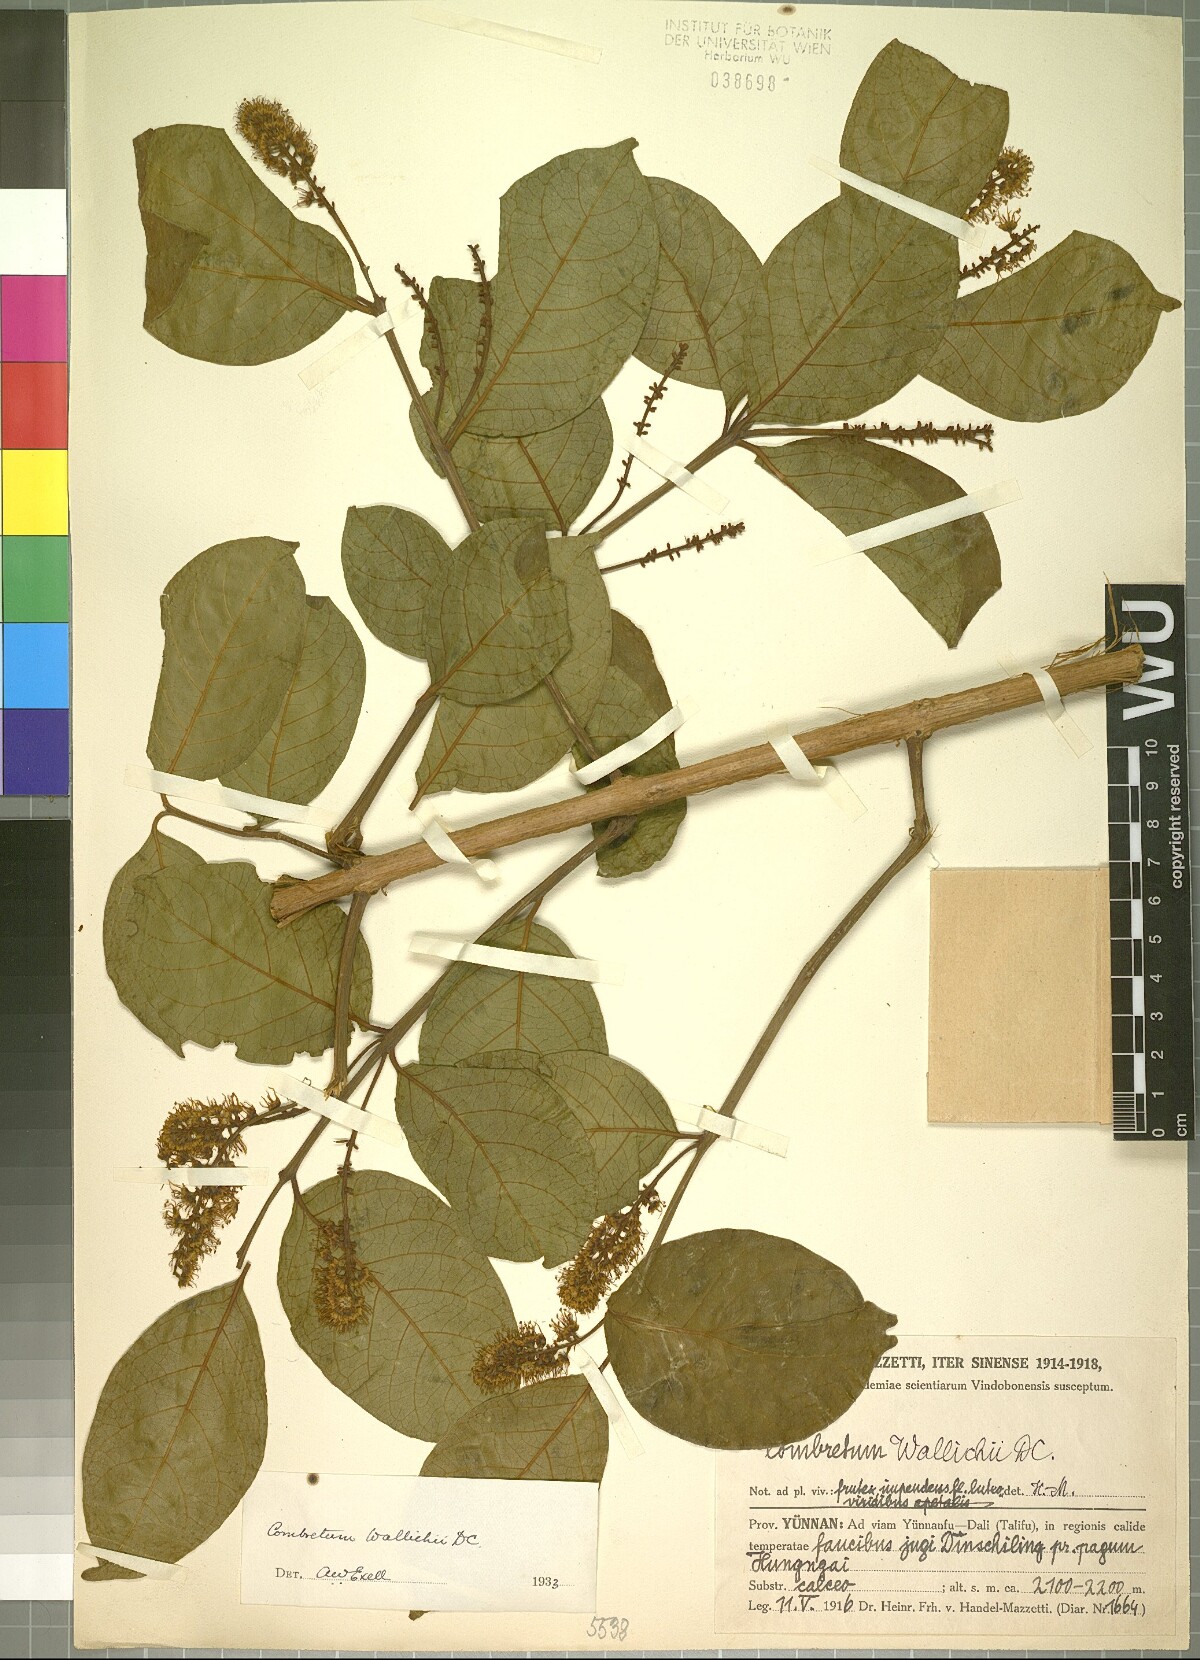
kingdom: Plantae
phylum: Tracheophyta
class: Magnoliopsida
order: Myrtales
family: Combretaceae
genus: Combretum
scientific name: Combretum wallichii
